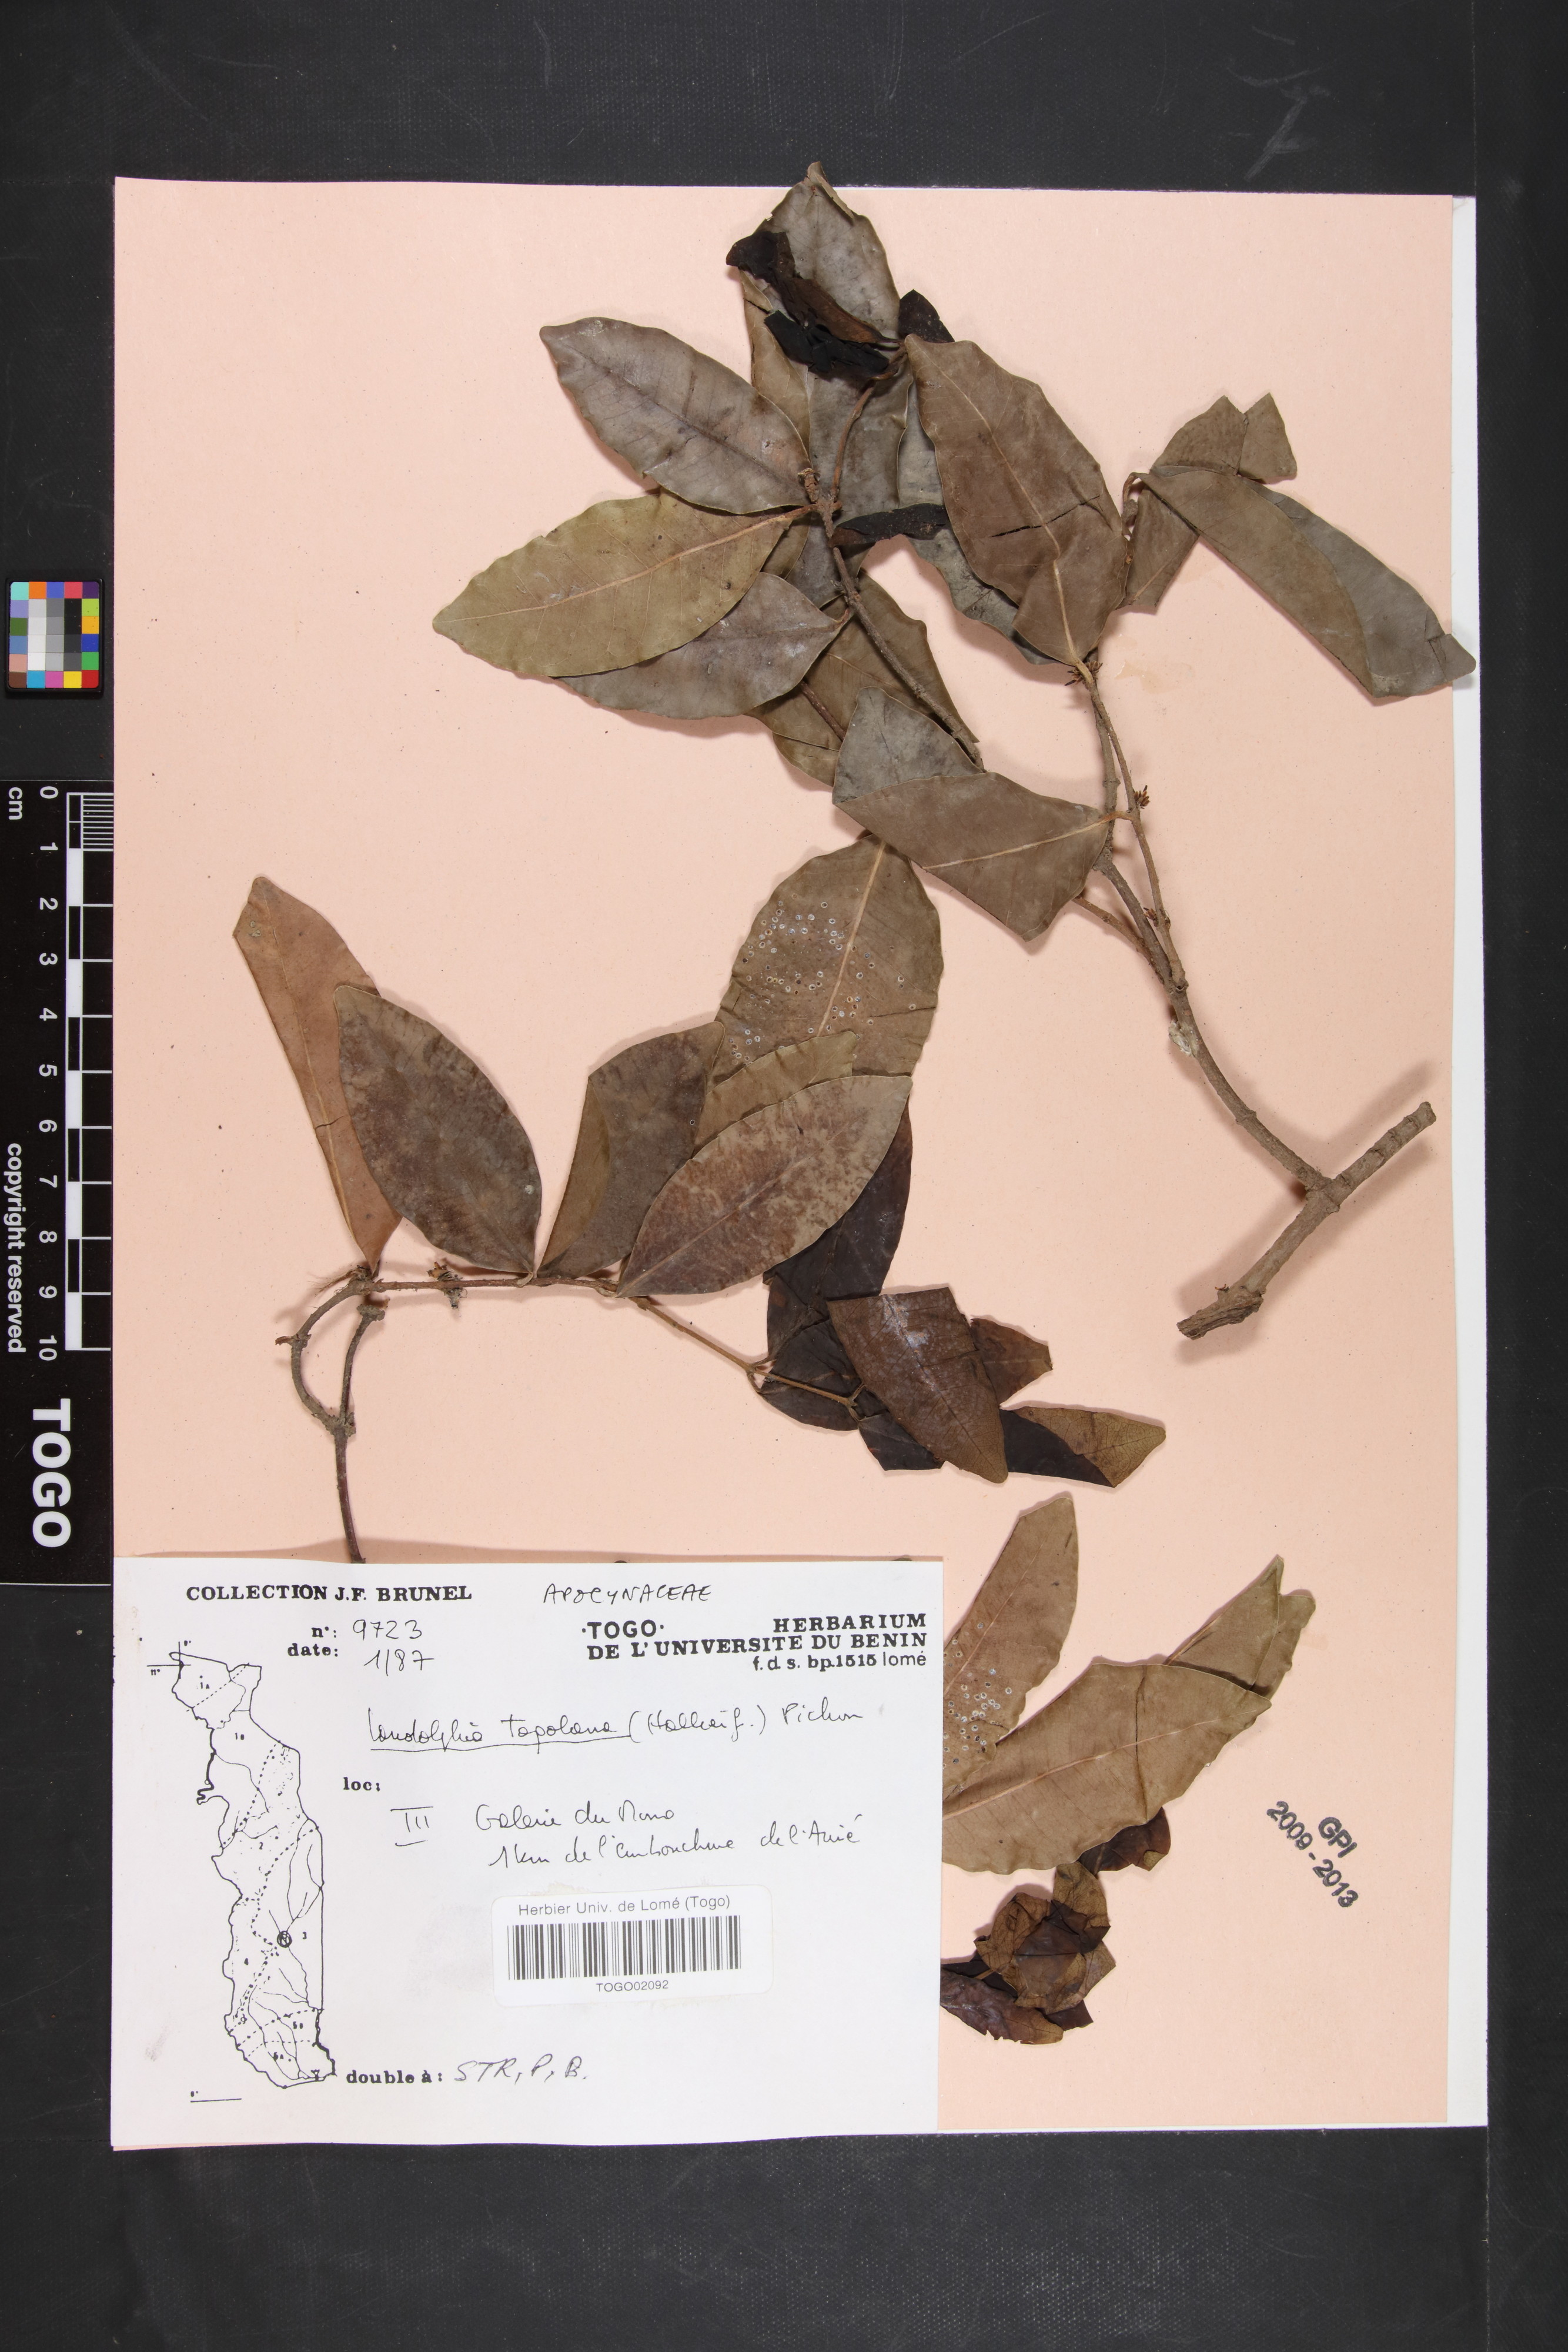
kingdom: Plantae
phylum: Tracheophyta
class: Magnoliopsida
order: Gentianales
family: Apocynaceae
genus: Landolphia
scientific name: Landolphia togolana
